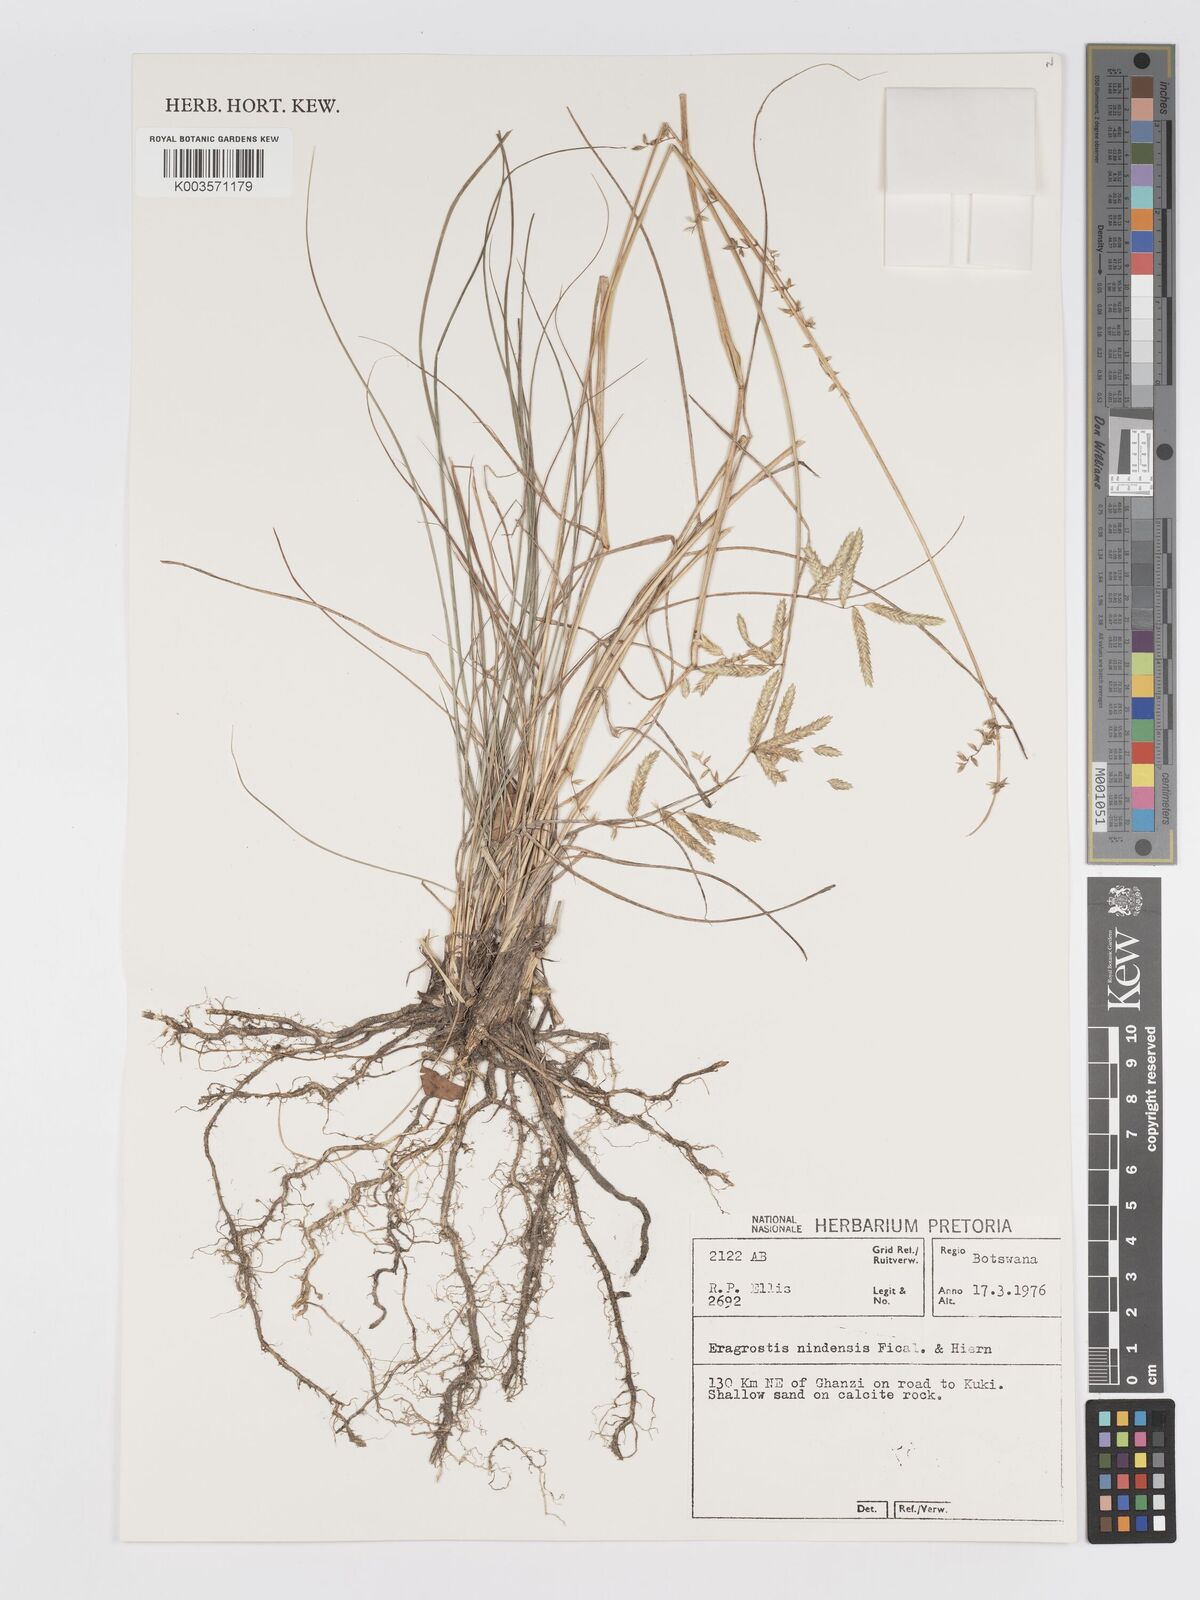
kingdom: Plantae
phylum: Tracheophyta
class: Liliopsida
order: Poales
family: Poaceae
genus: Eragrostis
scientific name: Eragrostis nindensis
